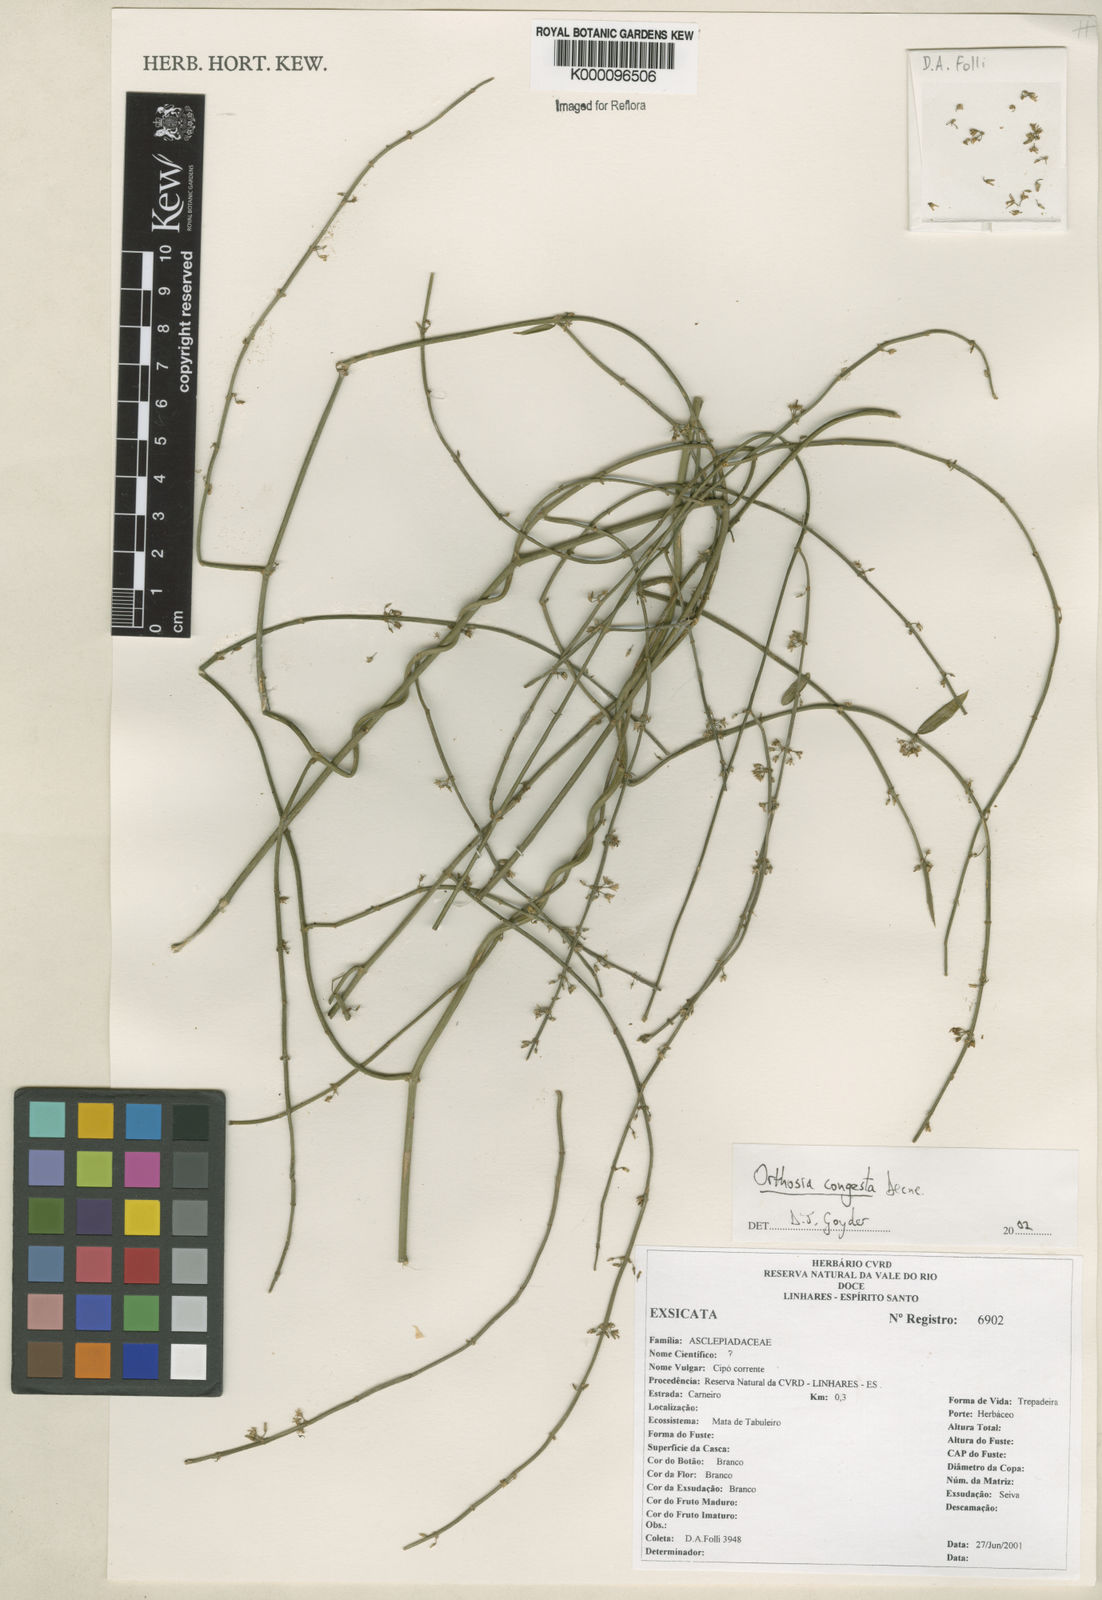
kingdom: Plantae
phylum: Tracheophyta
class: Magnoliopsida
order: Gentianales
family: Apocynaceae
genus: Orthosia
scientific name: Orthosia congesta
